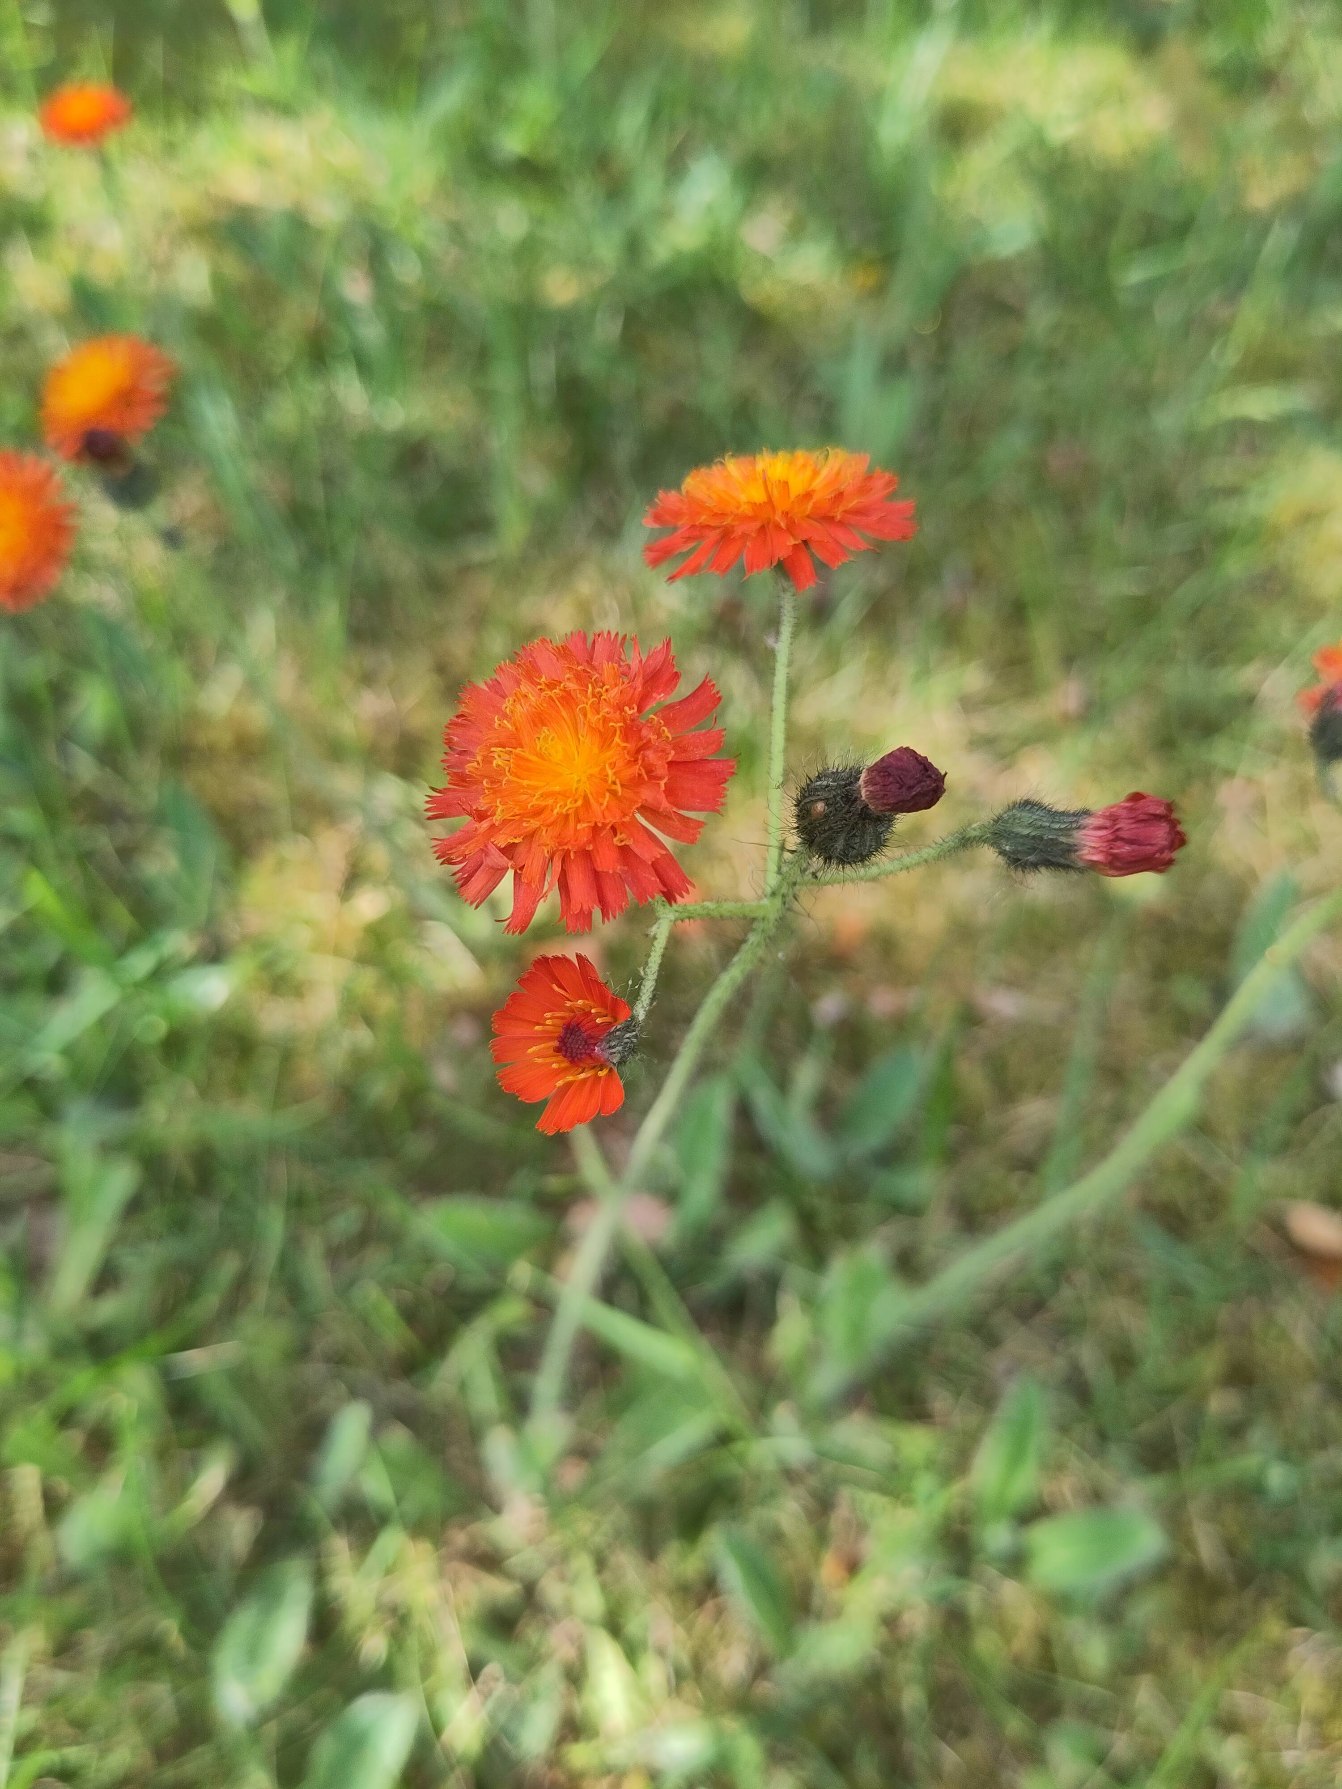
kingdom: Plantae
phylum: Tracheophyta
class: Magnoliopsida
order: Asterales
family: Asteraceae
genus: Pilosella
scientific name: Pilosella aurantiaca
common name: Pomerans-høgeurt
